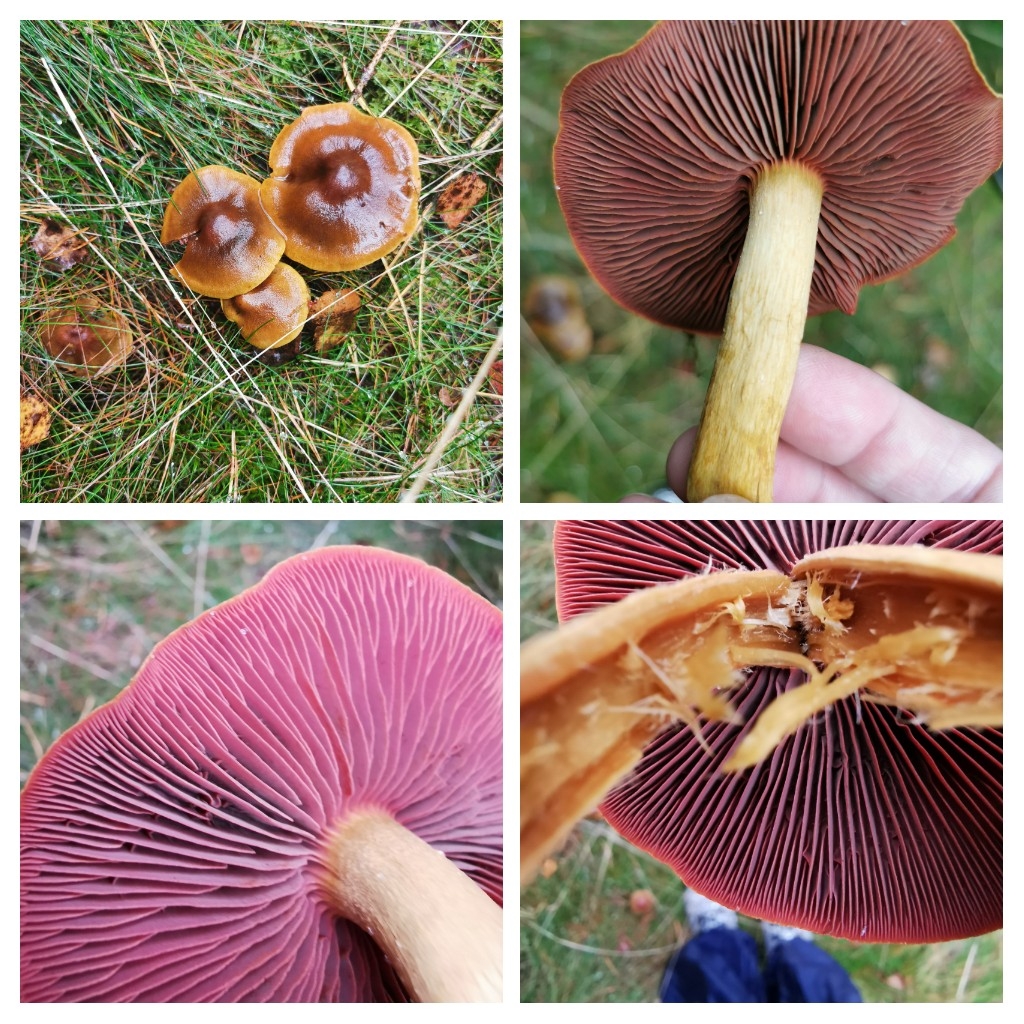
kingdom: Fungi
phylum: Basidiomycota
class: Agaricomycetes
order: Agaricales
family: Cortinariaceae
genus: Cortinarius
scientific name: Cortinarius
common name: cinnoberbladet slørhat
